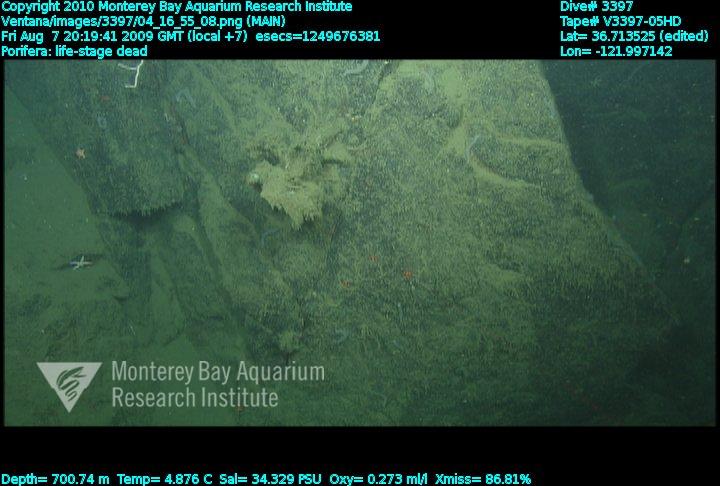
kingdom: Animalia
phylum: Porifera
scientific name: Porifera
